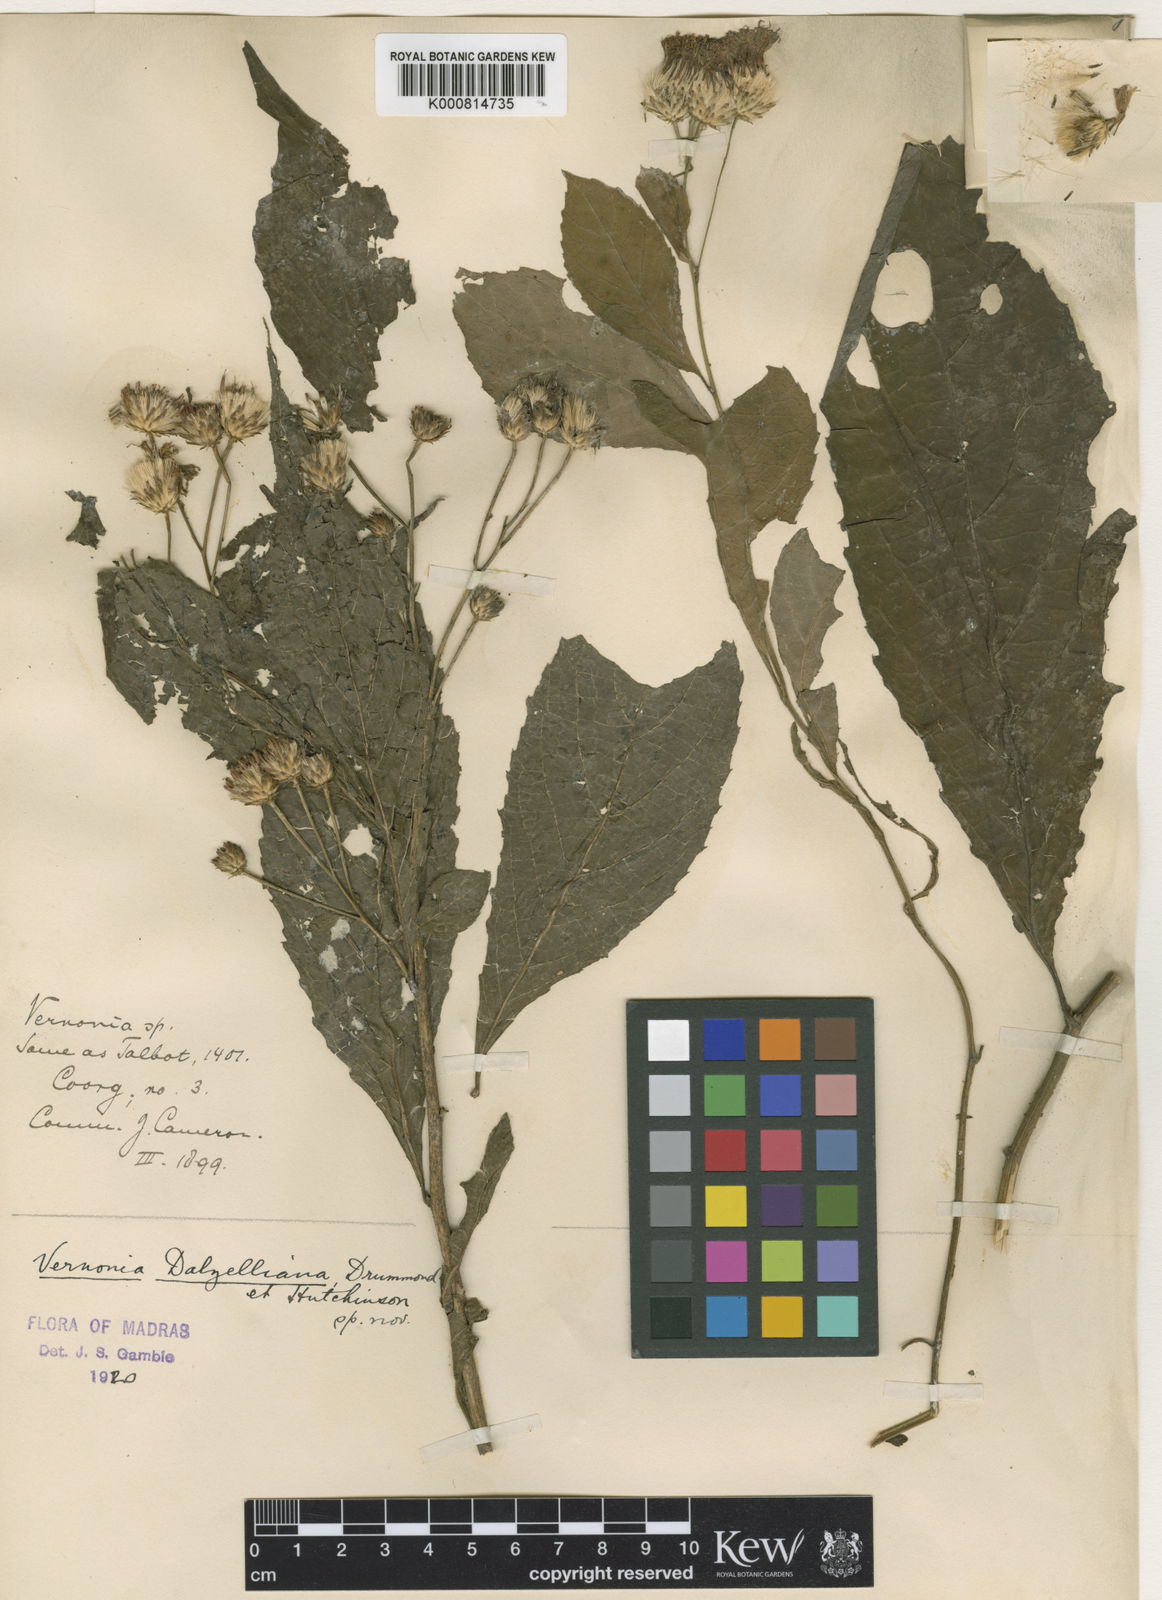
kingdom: Plantae
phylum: Tracheophyta
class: Magnoliopsida
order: Asterales
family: Asteraceae
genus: Acilepis
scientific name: Acilepis ornata
